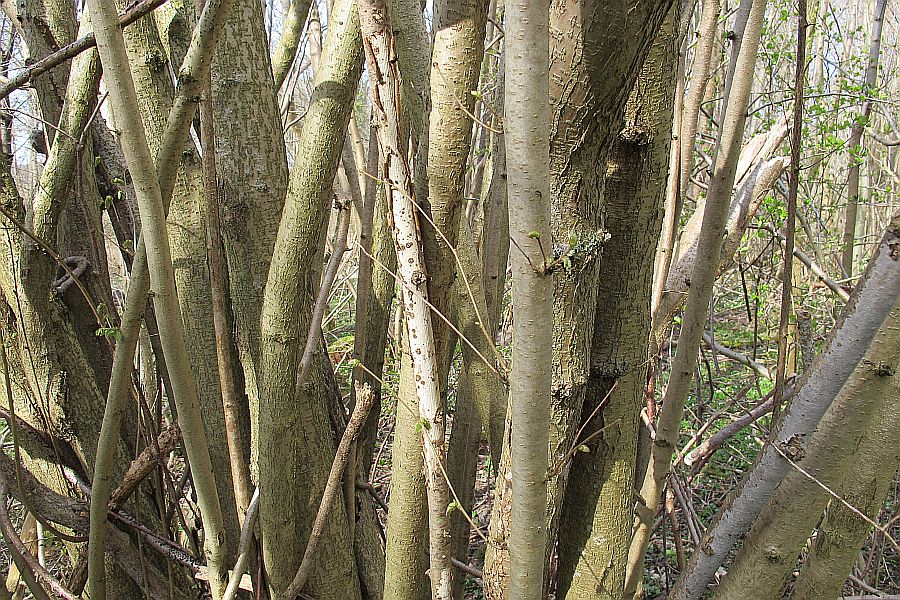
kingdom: Fungi
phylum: Basidiomycota
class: Agaricomycetes
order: Corticiales
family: Vuilleminiaceae
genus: Vuilleminia
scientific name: Vuilleminia coryli
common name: hassel-barksprænger
